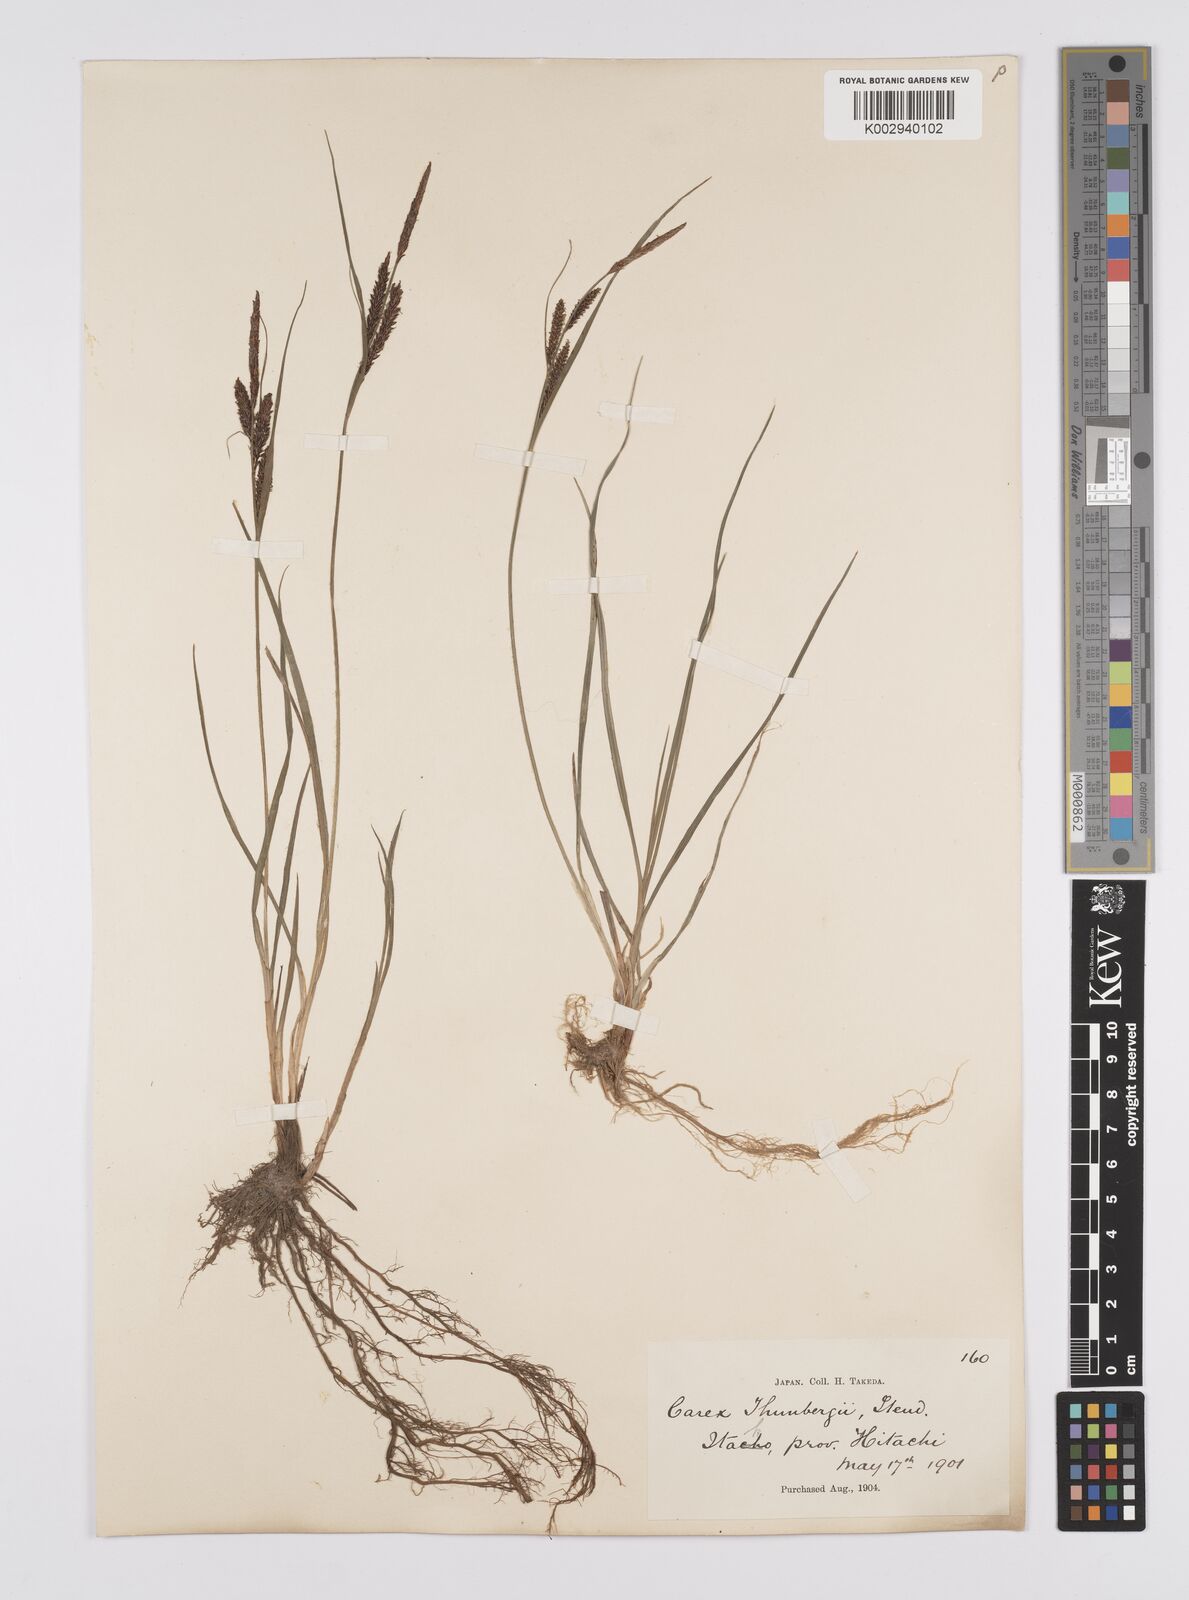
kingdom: Plantae
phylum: Tracheophyta
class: Liliopsida
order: Poales
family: Cyperaceae
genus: Carex
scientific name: Carex thunbergii
